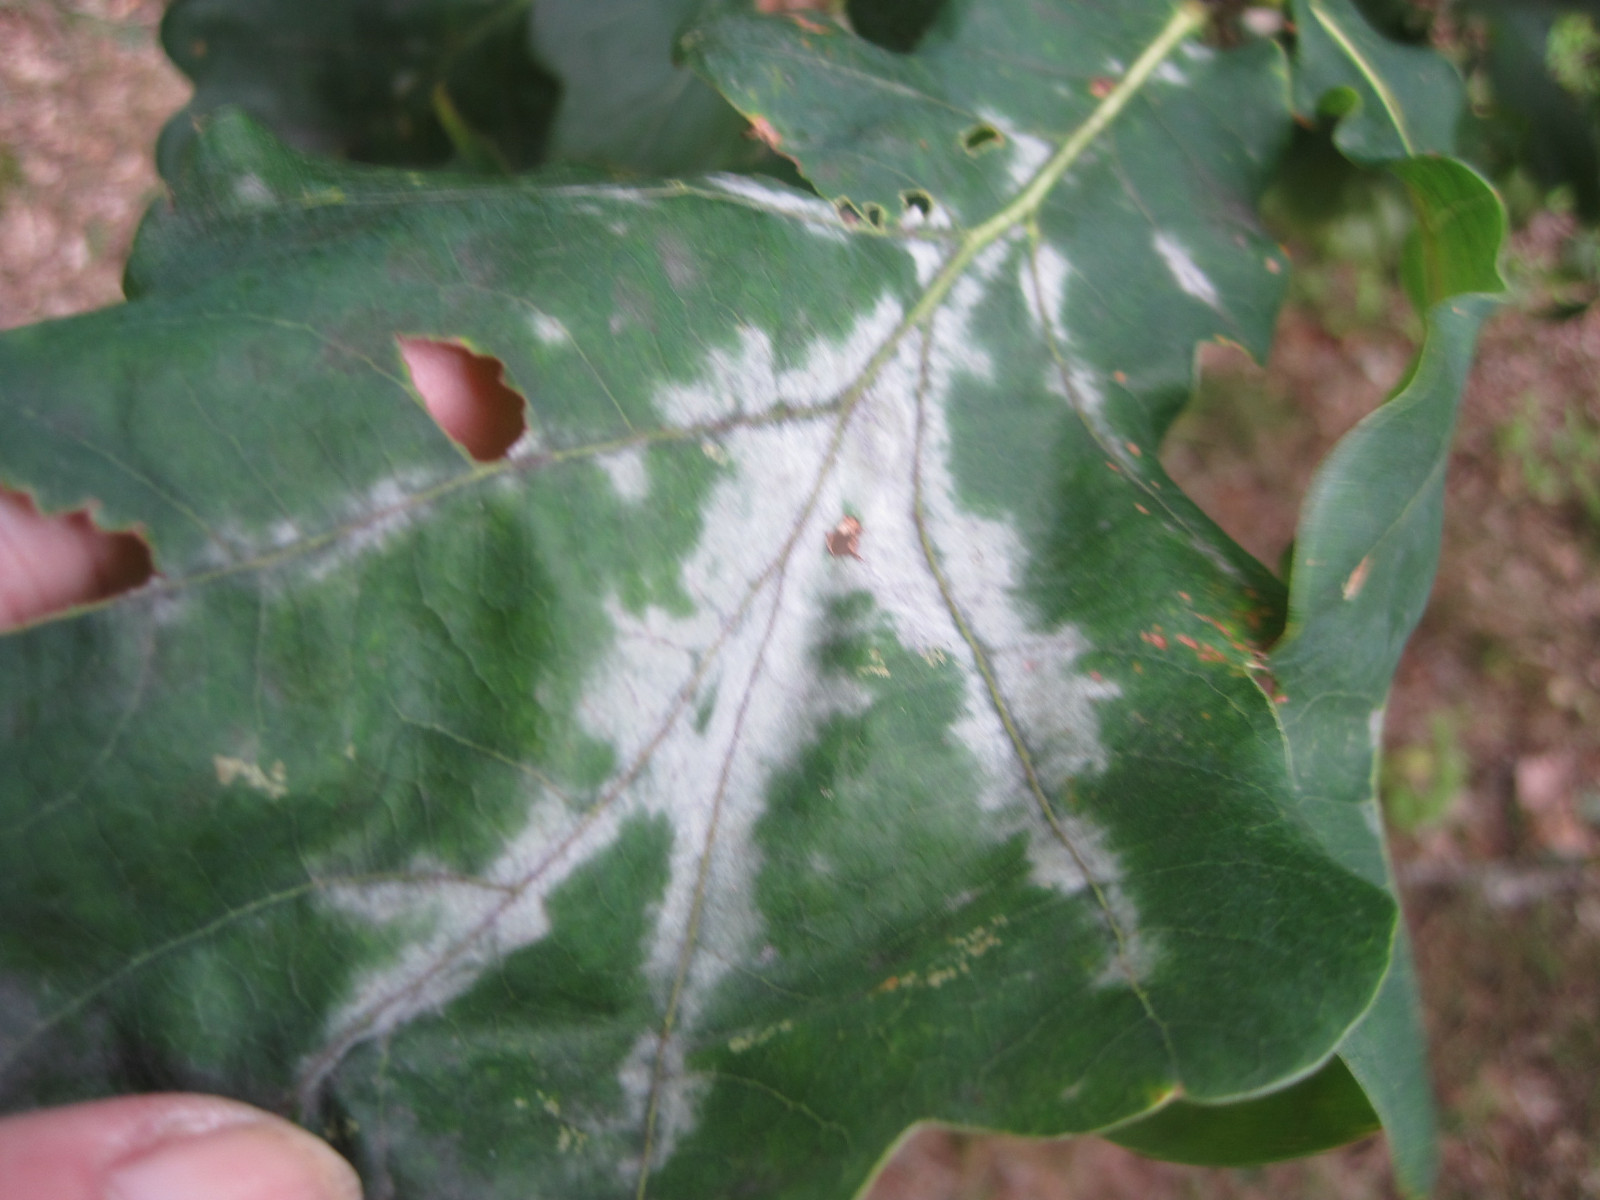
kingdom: Fungi
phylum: Ascomycota
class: Leotiomycetes
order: Helotiales
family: Erysiphaceae
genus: Erysiphe
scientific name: Erysiphe alphitoides
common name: ege-meldug
